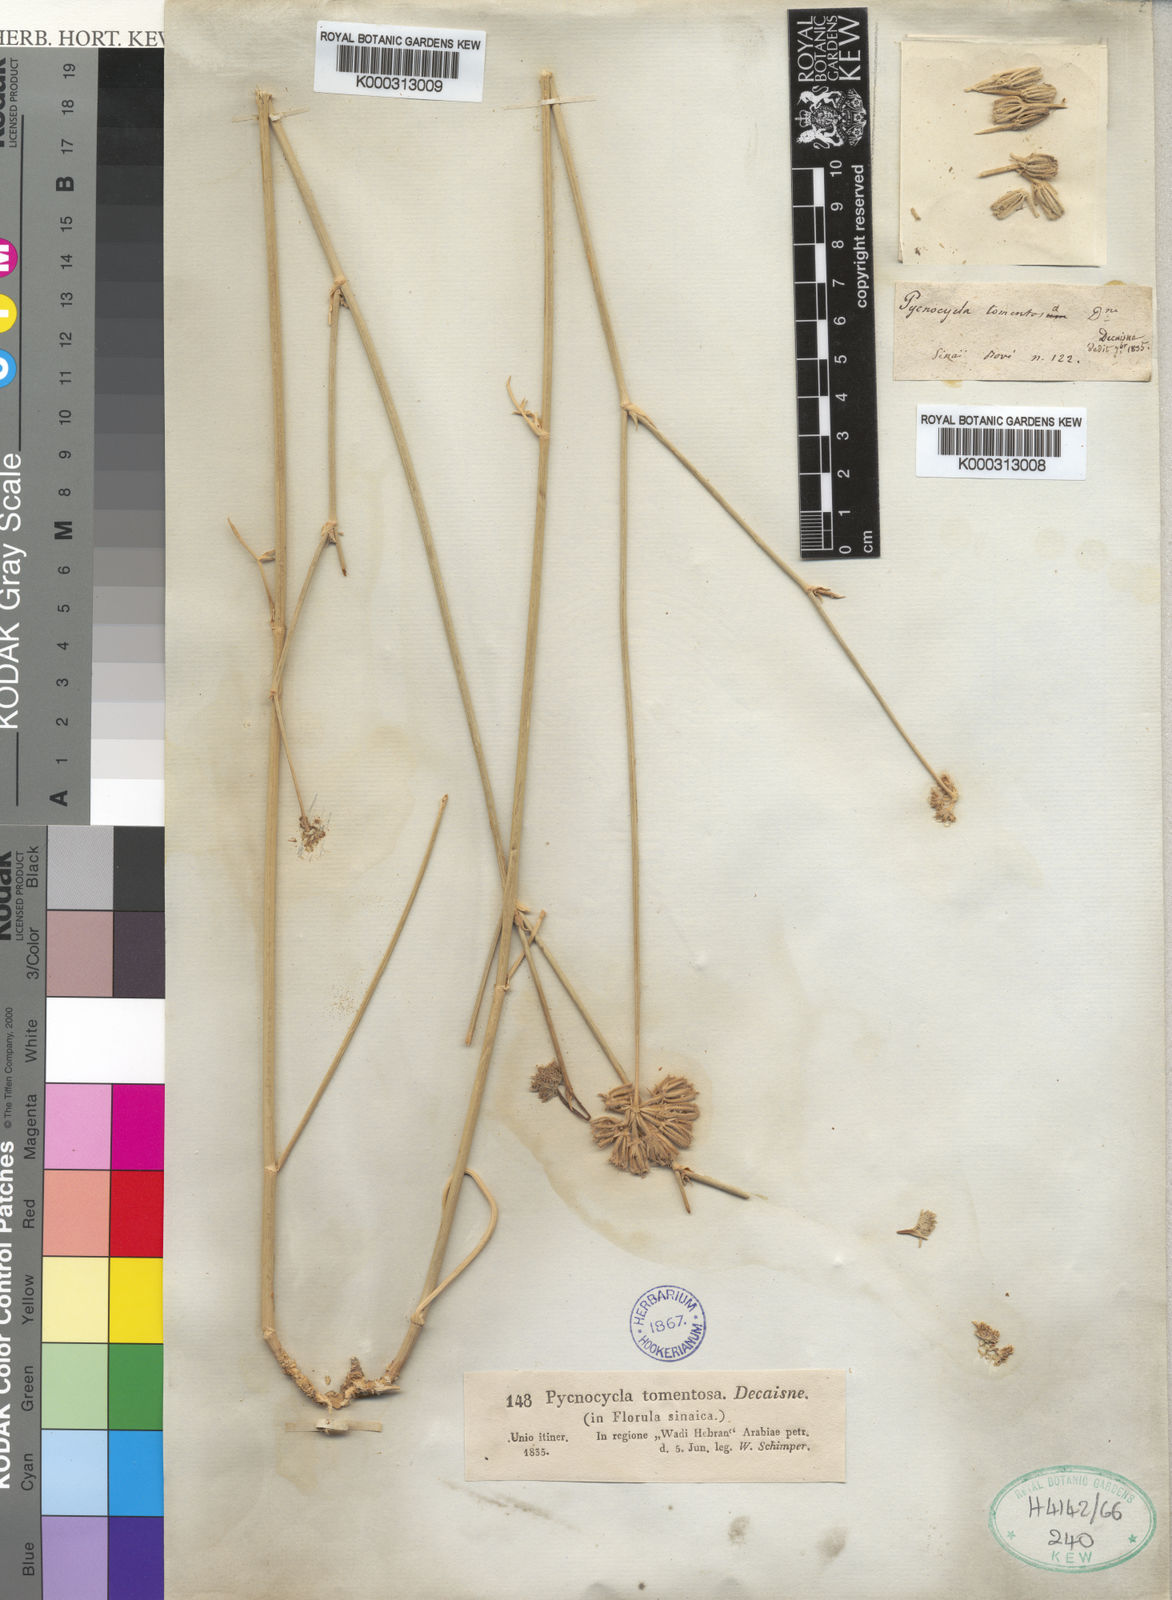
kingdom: Plantae
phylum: Tracheophyta
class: Magnoliopsida
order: Apiales
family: Apiaceae
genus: Pycnocycla
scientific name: Pycnocycla tomentosa
